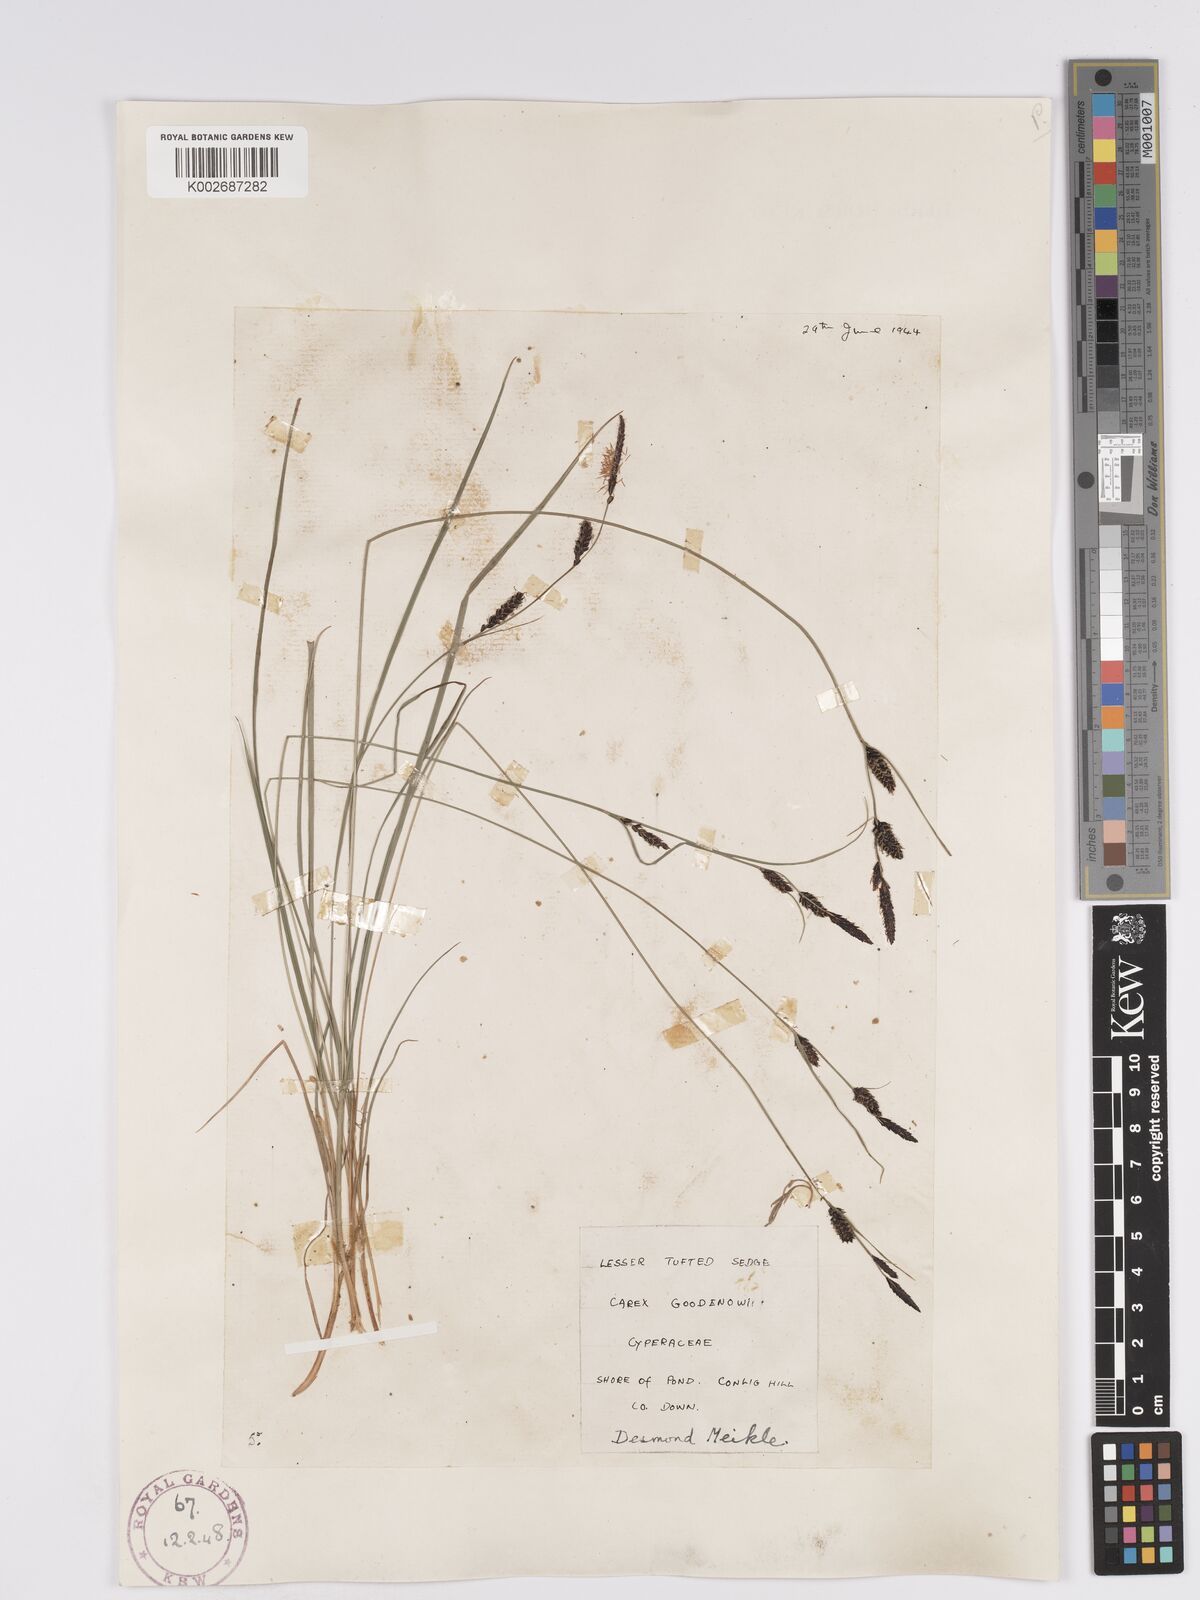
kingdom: Plantae
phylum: Tracheophyta
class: Liliopsida
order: Poales
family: Cyperaceae
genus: Carex
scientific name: Carex nigra
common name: Common sedge
